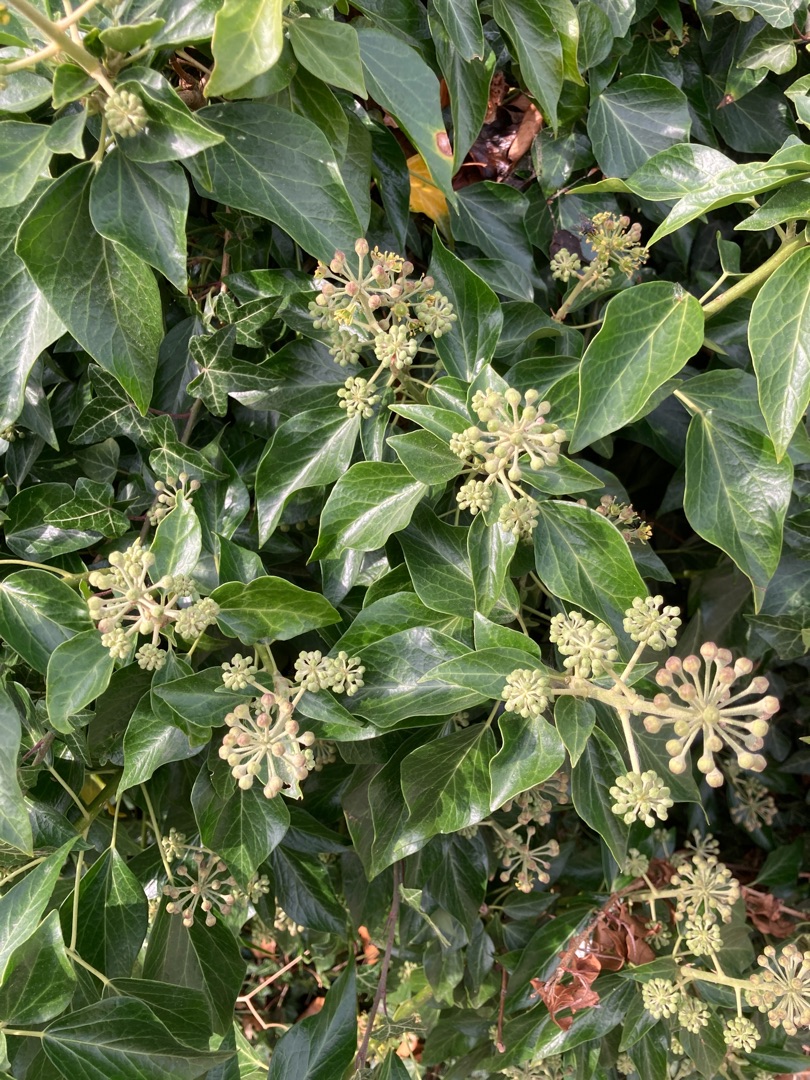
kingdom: Plantae
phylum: Tracheophyta
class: Magnoliopsida
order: Apiales
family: Araliaceae
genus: Hedera
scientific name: Hedera
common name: Vedbendslægten
